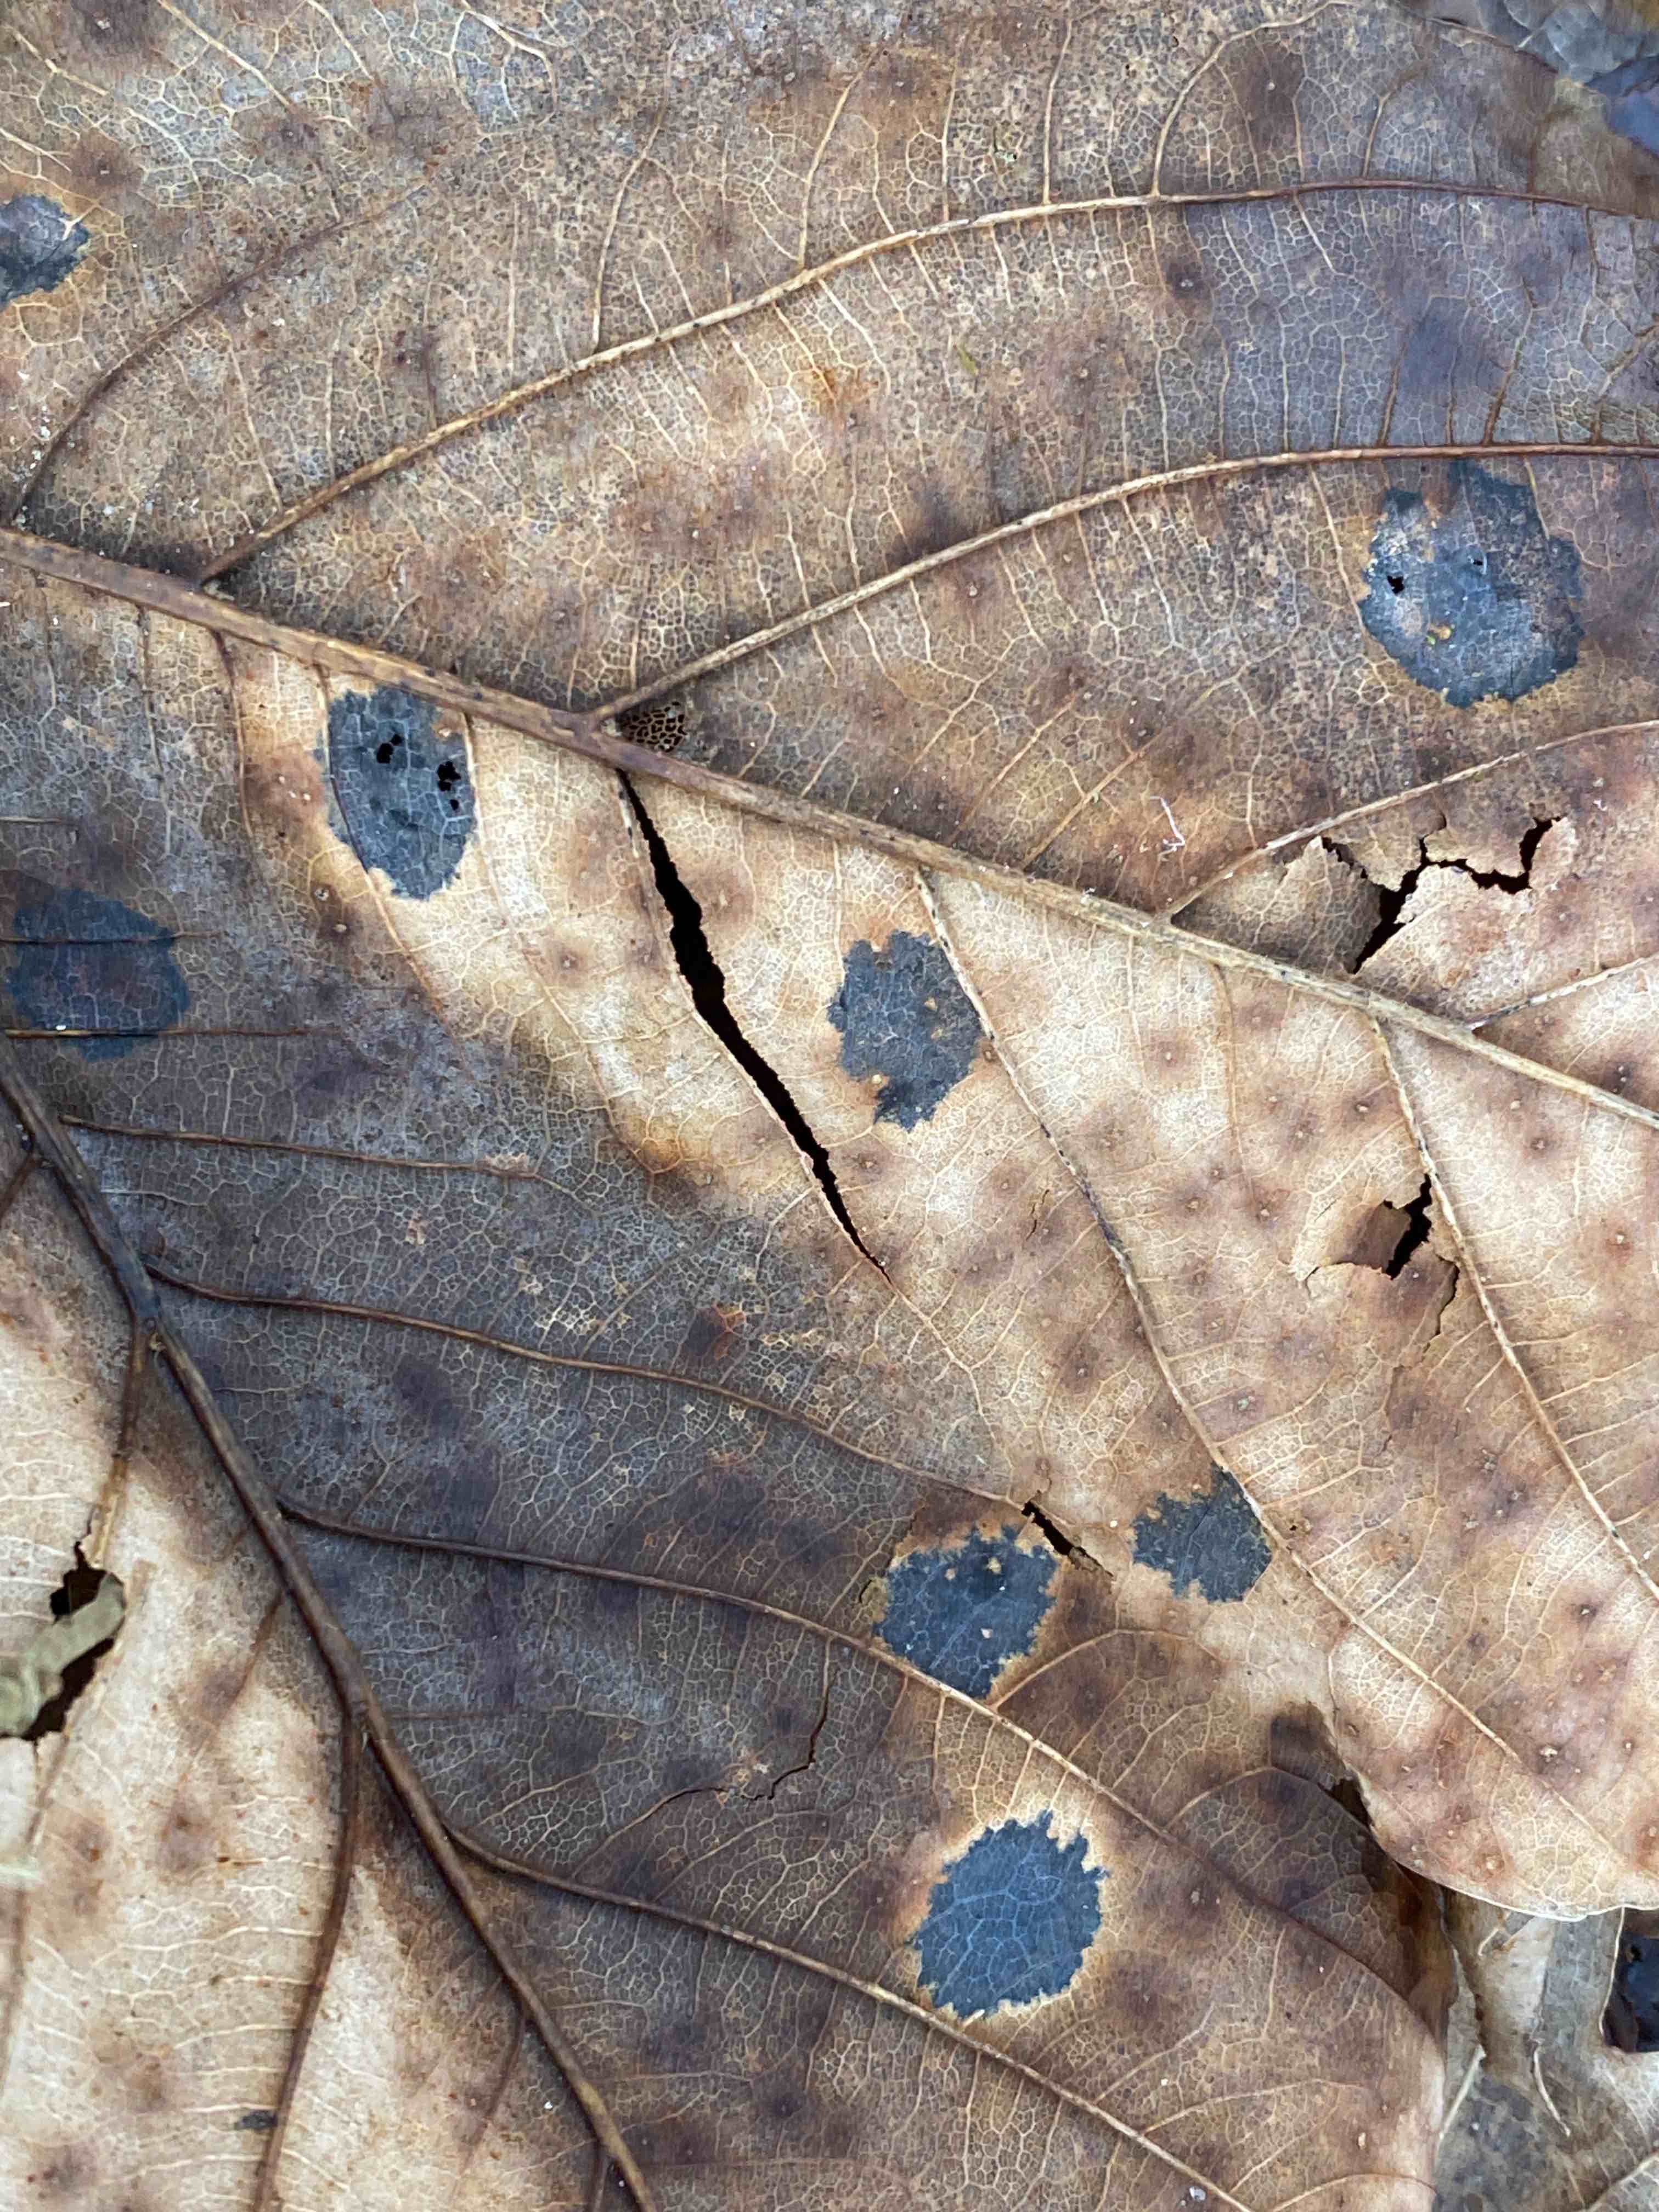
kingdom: Fungi
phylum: Ascomycota
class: Leotiomycetes
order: Rhytismatales
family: Rhytismataceae
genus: Rhytisma
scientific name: Rhytisma acerinum
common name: ahorn-rynkeplet
